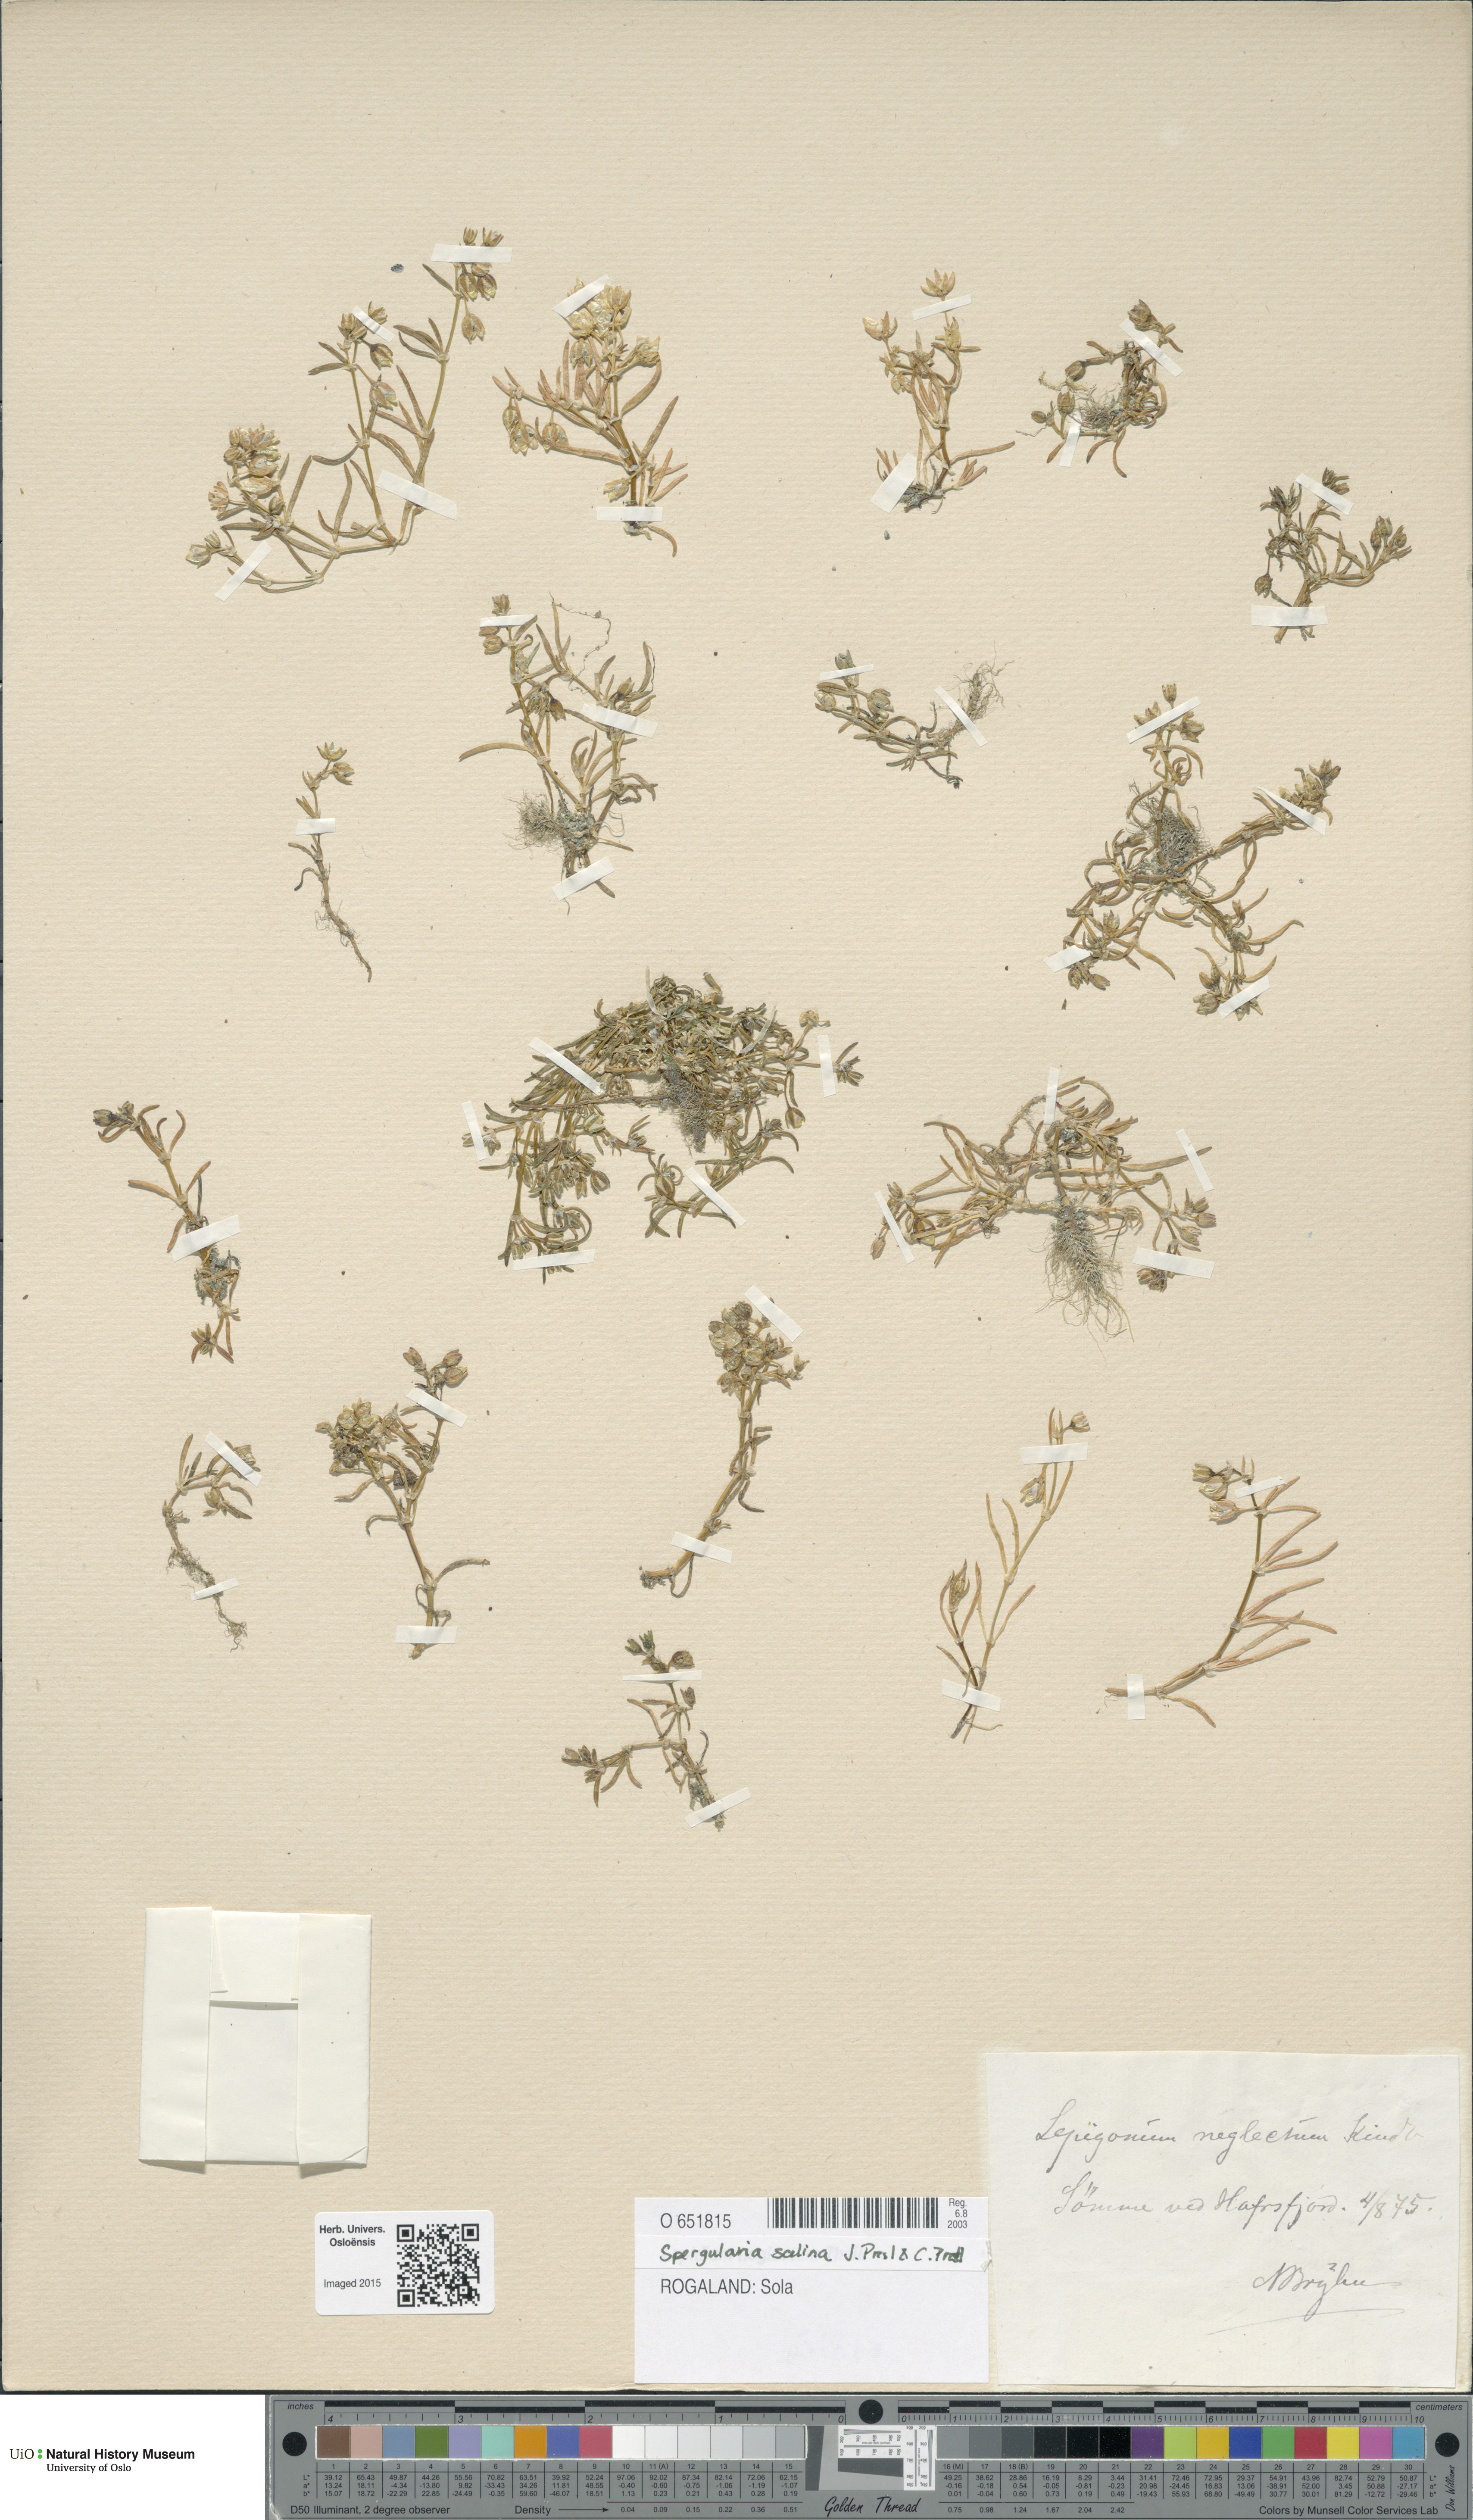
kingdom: Plantae
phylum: Tracheophyta
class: Magnoliopsida
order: Caryophyllales
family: Caryophyllaceae
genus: Spergula
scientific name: Spergula
